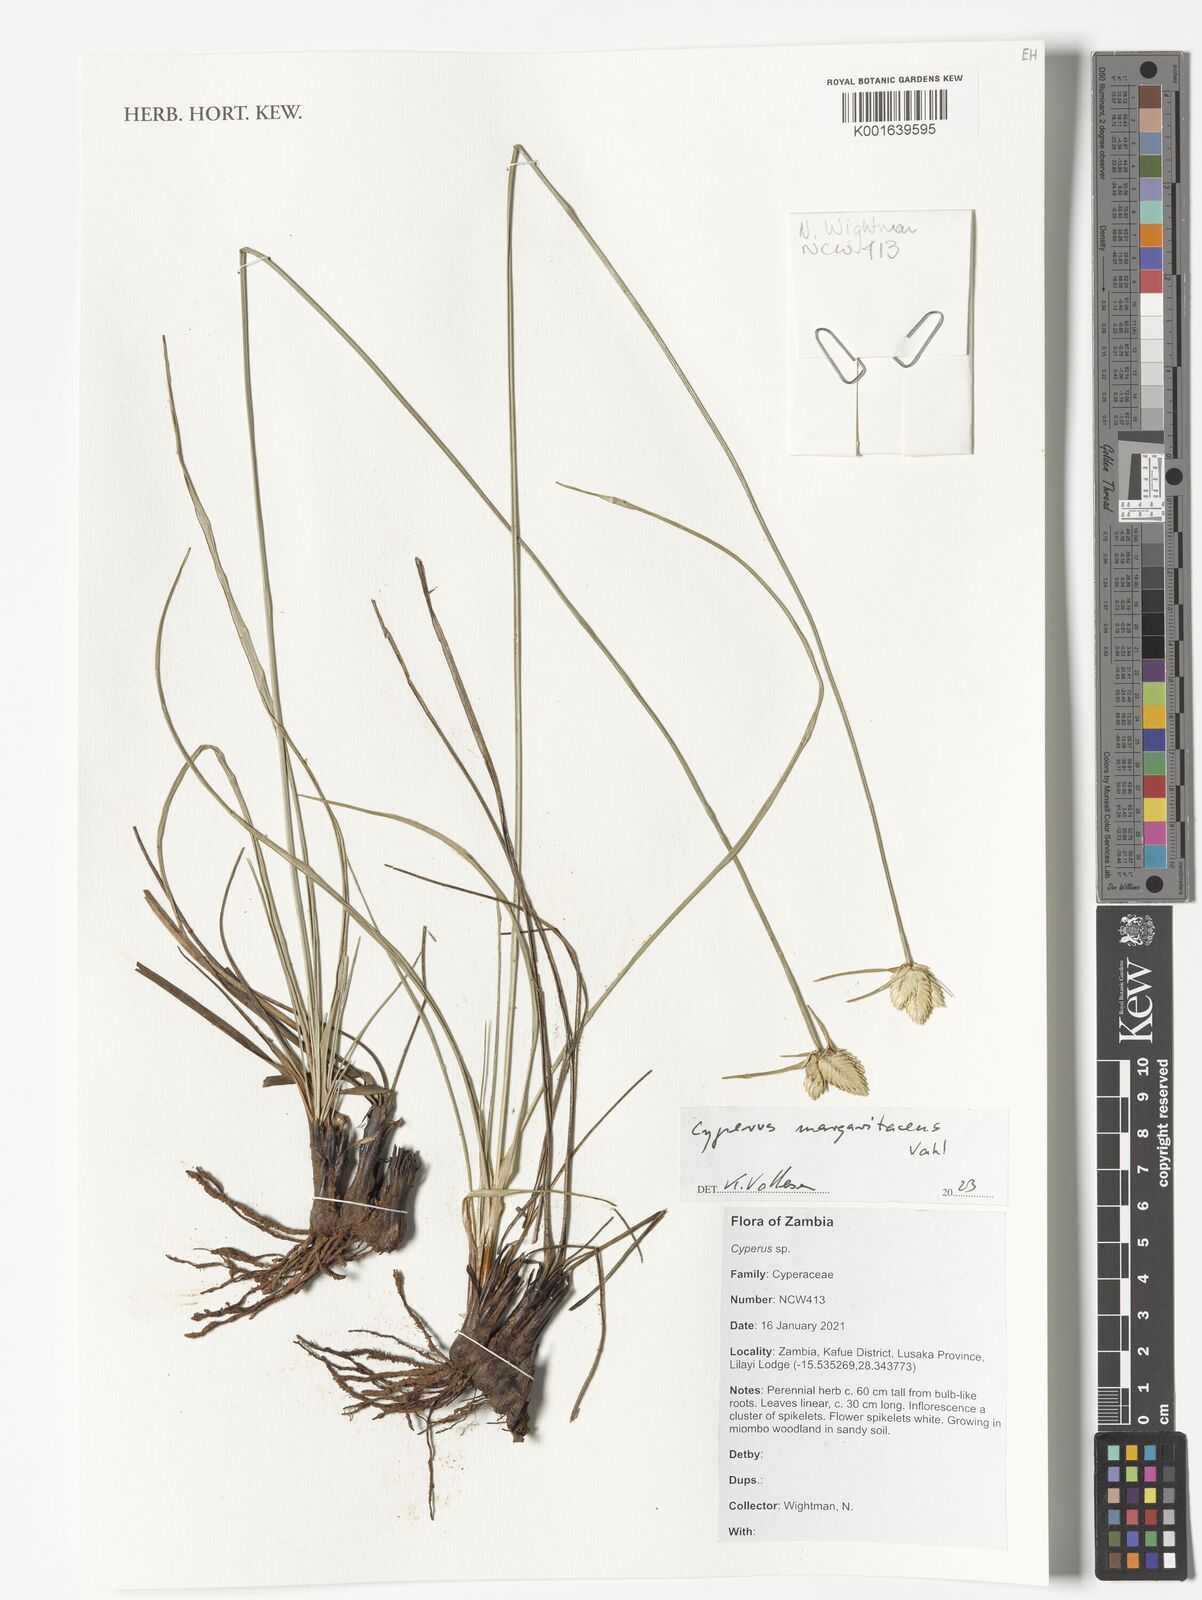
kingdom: Plantae
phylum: Tracheophyta
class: Liliopsida
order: Poales
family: Cyperaceae
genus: Cyperus
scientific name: Cyperus margaritaceus
